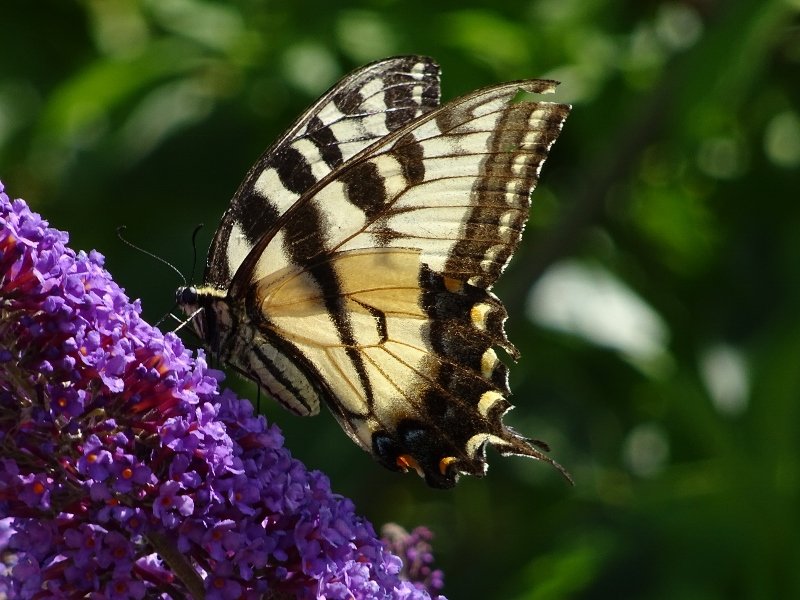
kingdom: Animalia
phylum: Arthropoda
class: Insecta
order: Lepidoptera
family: Papilionidae
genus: Pterourus
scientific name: Pterourus glaucus
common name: Eastern Tiger Swallowtail
